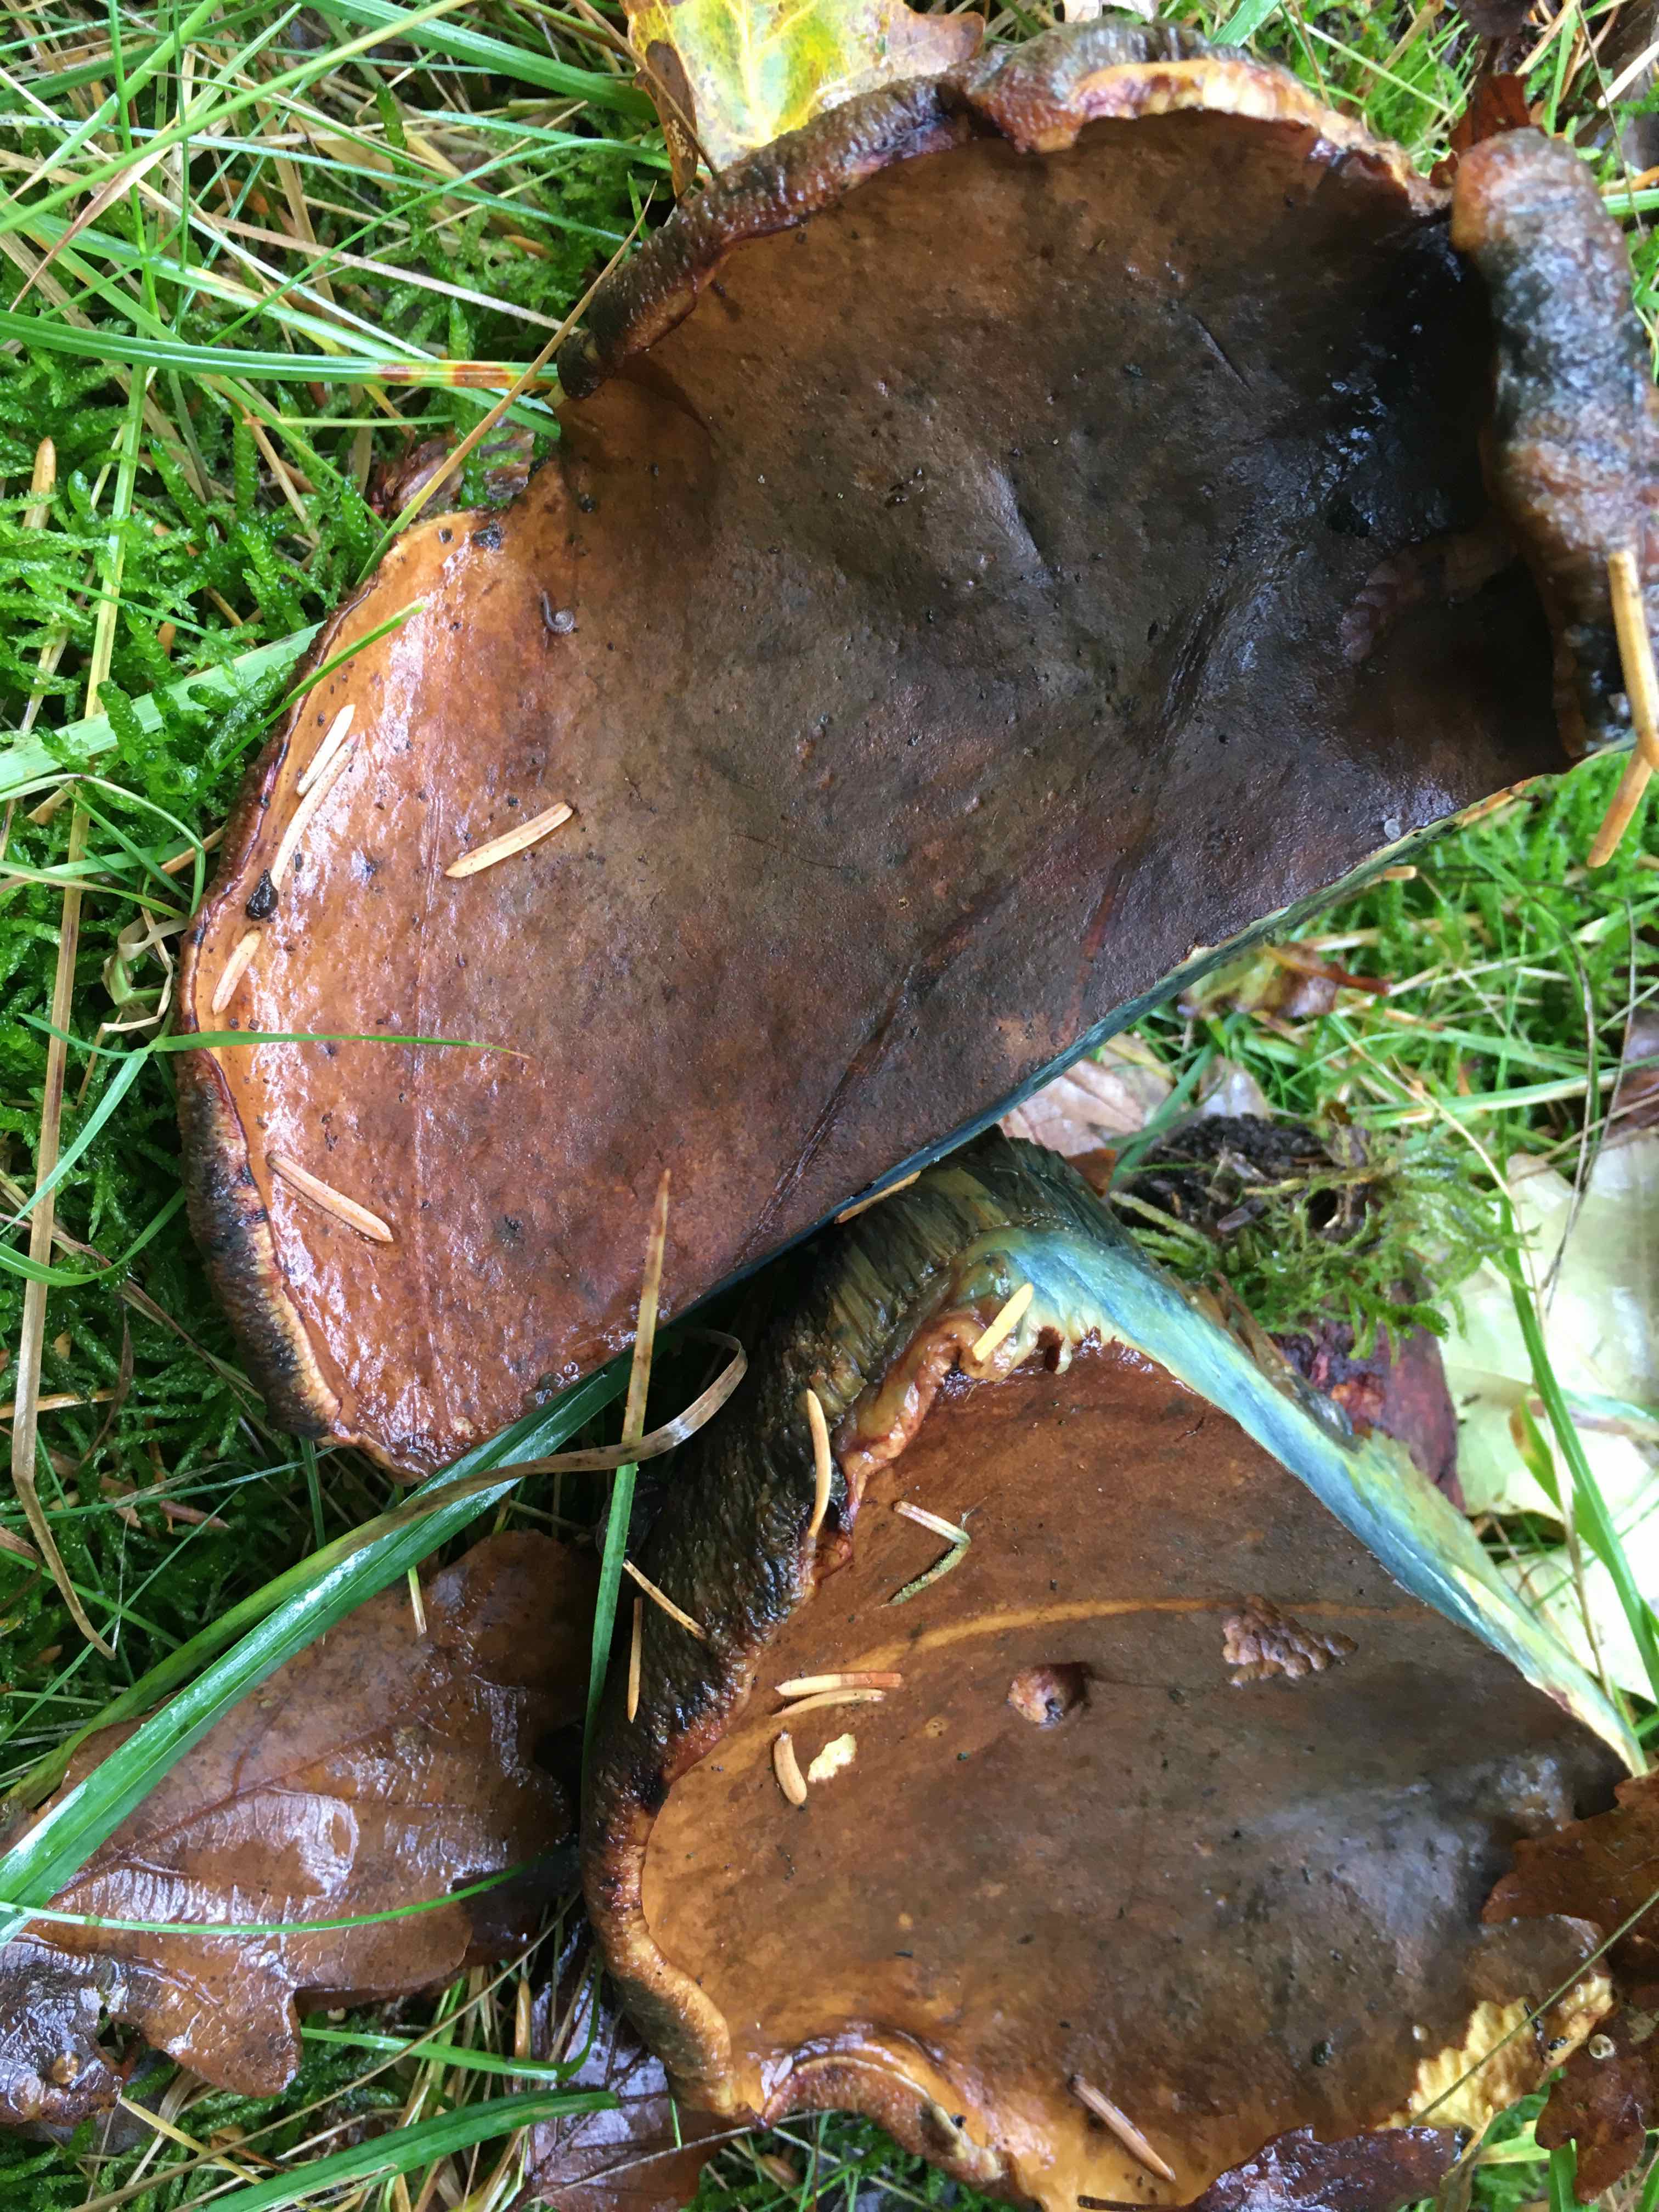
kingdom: Fungi
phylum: Basidiomycota
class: Agaricomycetes
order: Boletales
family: Boletaceae
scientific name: Boletaceae
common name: rørhatfamilien
